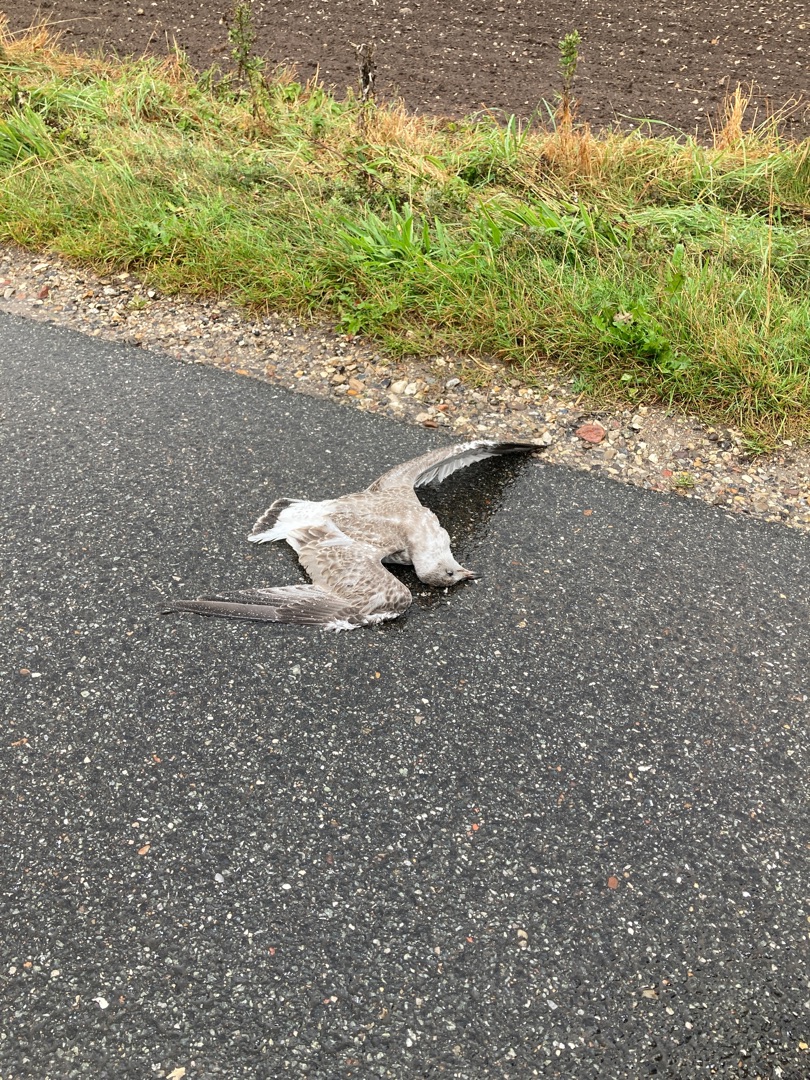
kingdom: Animalia
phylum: Chordata
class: Aves
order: Charadriiformes
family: Laridae
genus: Larus
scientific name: Larus canus
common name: Stormmåge
